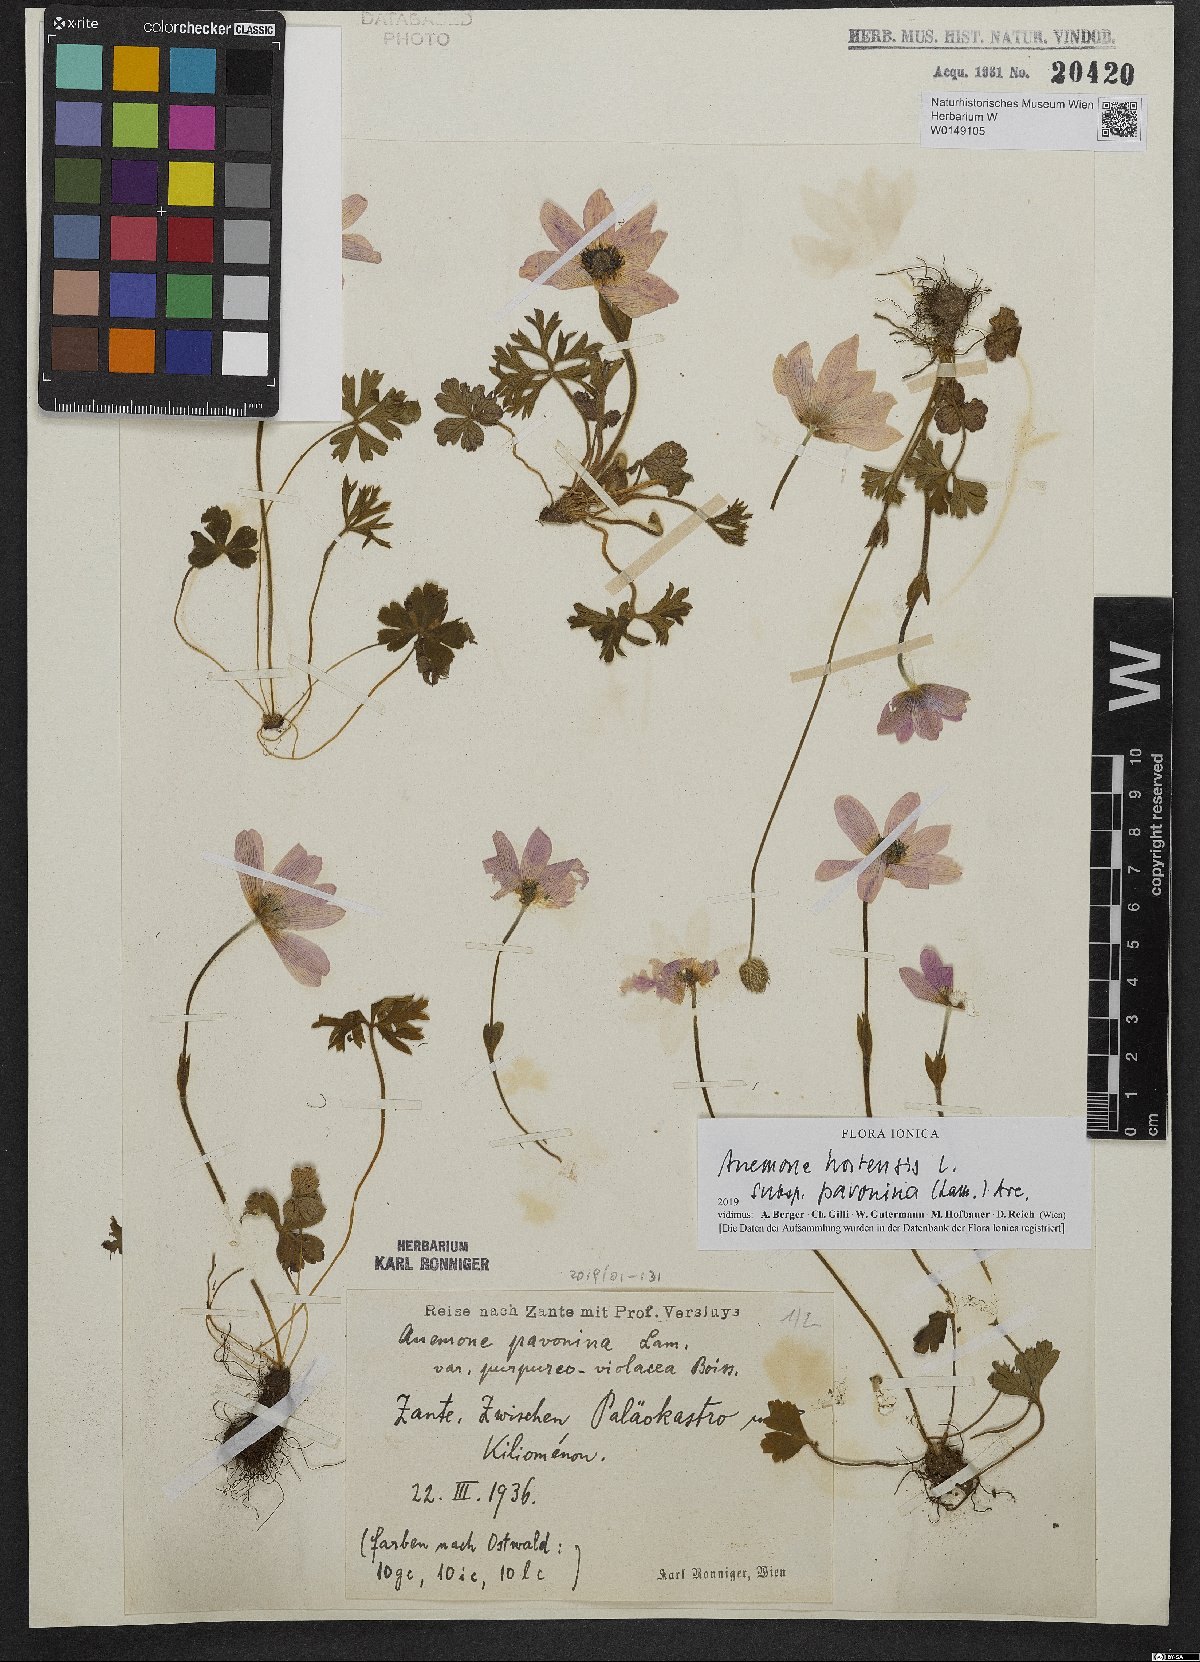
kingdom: Plantae
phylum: Tracheophyta
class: Magnoliopsida
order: Ranunculales
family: Ranunculaceae
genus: Anemone
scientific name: Anemone pavonina
